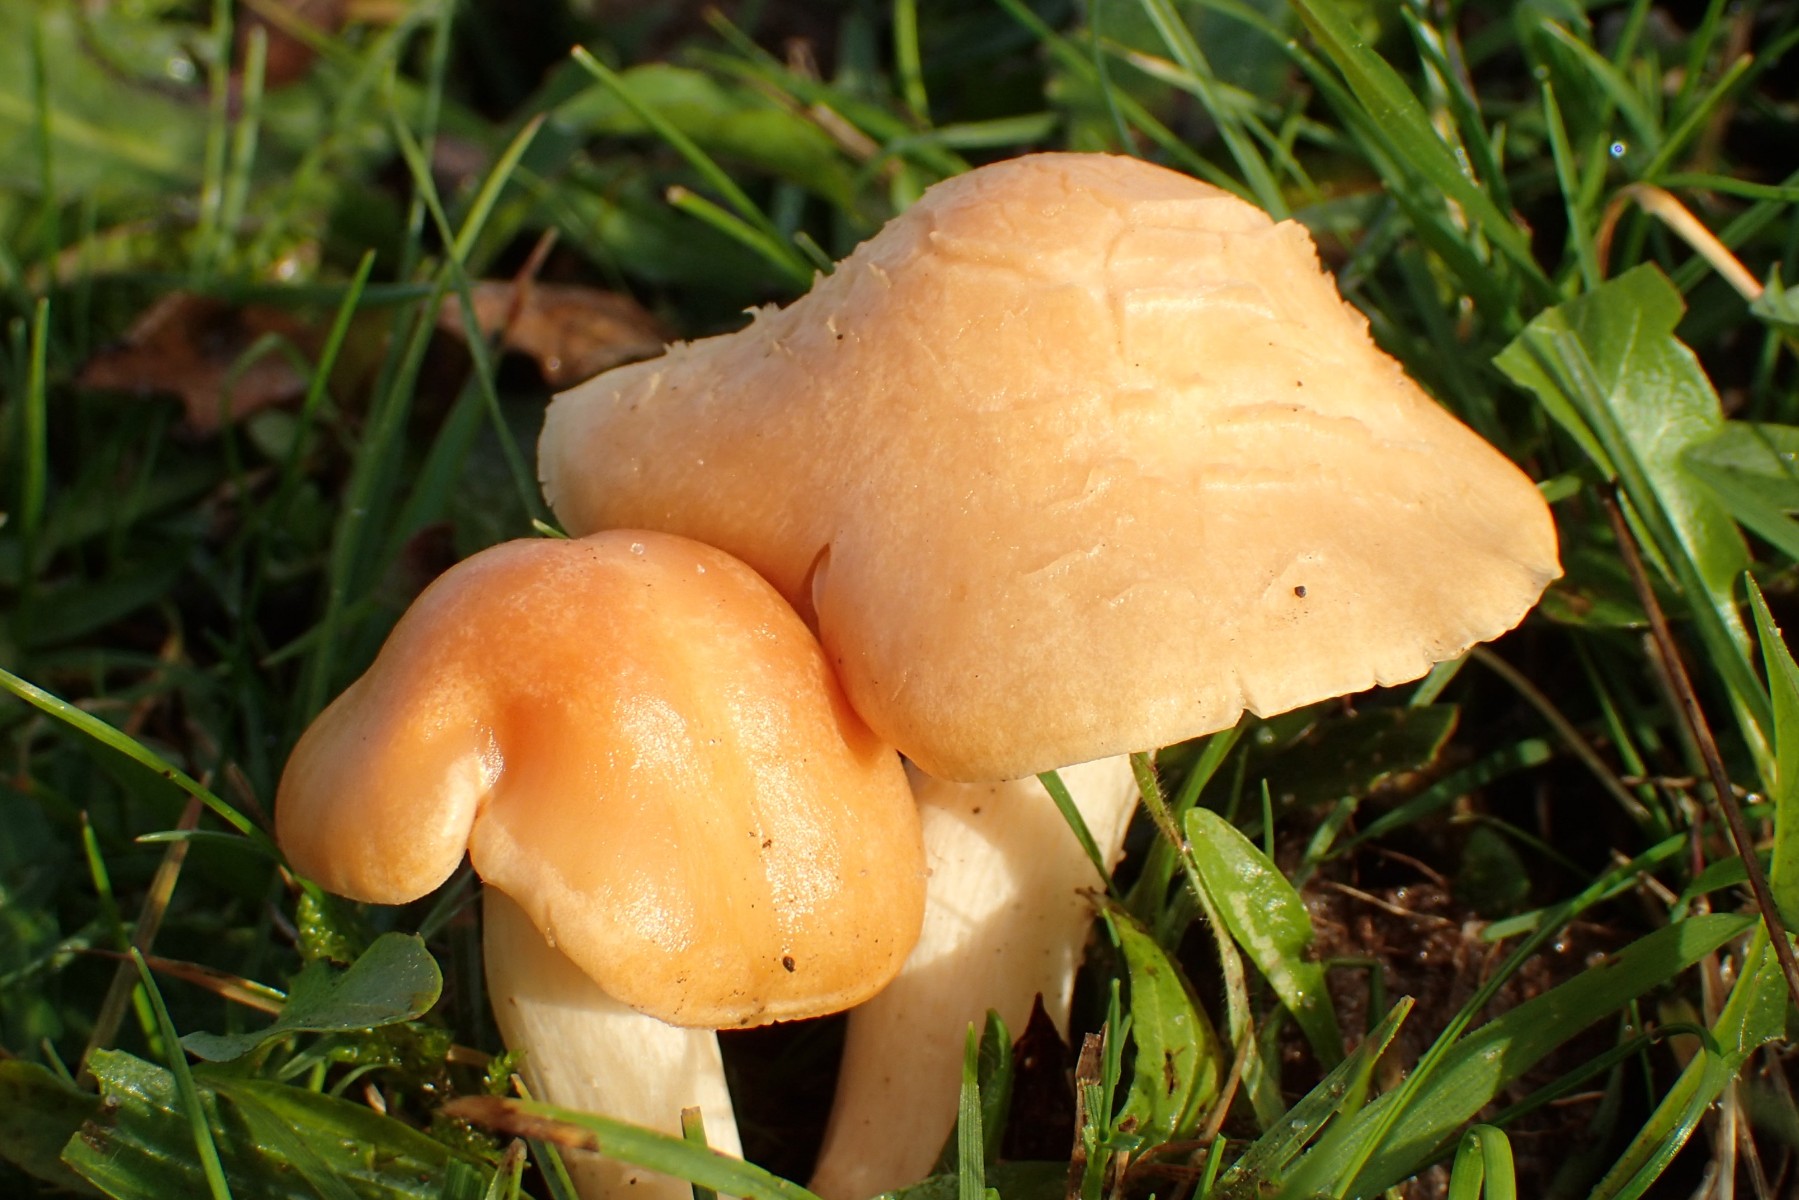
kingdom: Fungi
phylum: Basidiomycota
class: Agaricomycetes
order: Agaricales
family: Hygrophoraceae
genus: Cuphophyllus
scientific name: Cuphophyllus pratensis
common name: eng-vokshat
